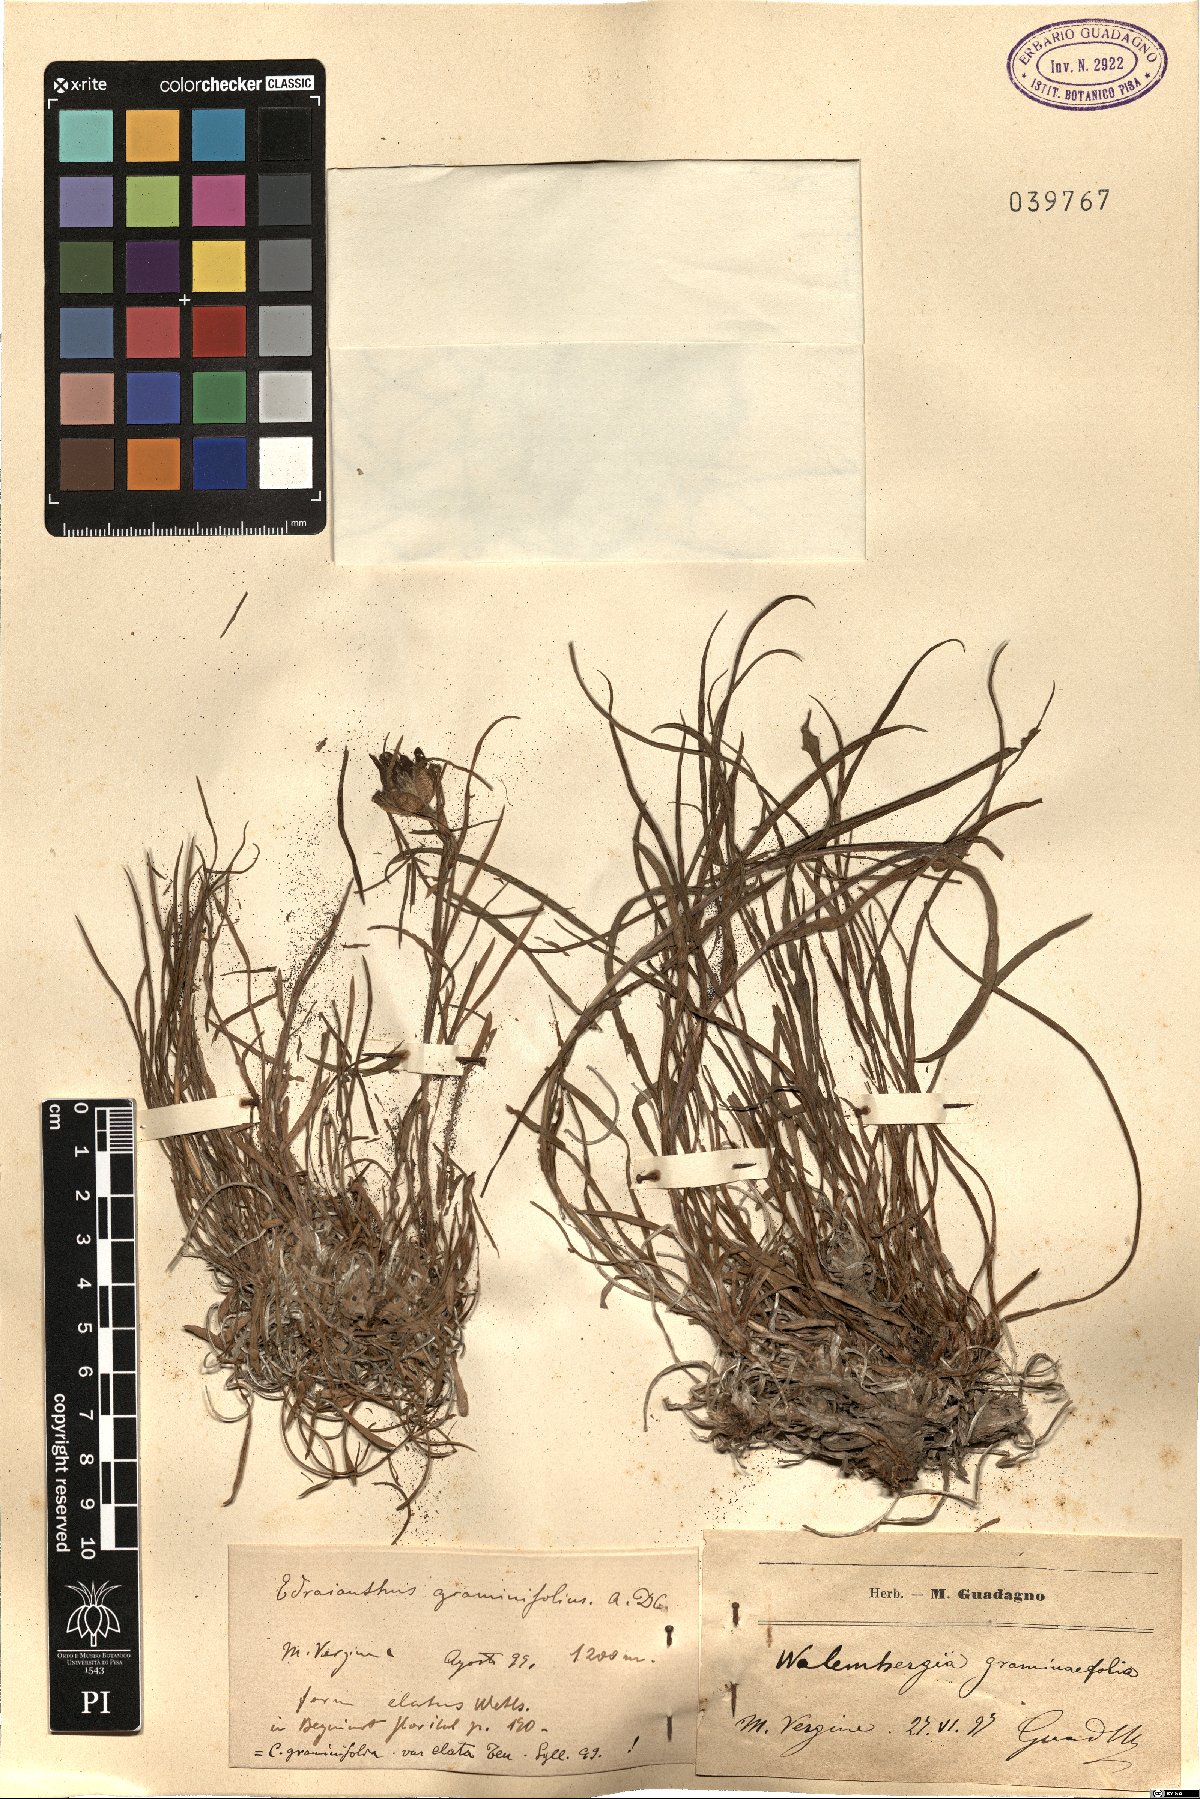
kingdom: Plantae
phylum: Tracheophyta
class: Magnoliopsida
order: Asterales
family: Campanulaceae
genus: Edraianthus
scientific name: Edraianthus graminifolius
